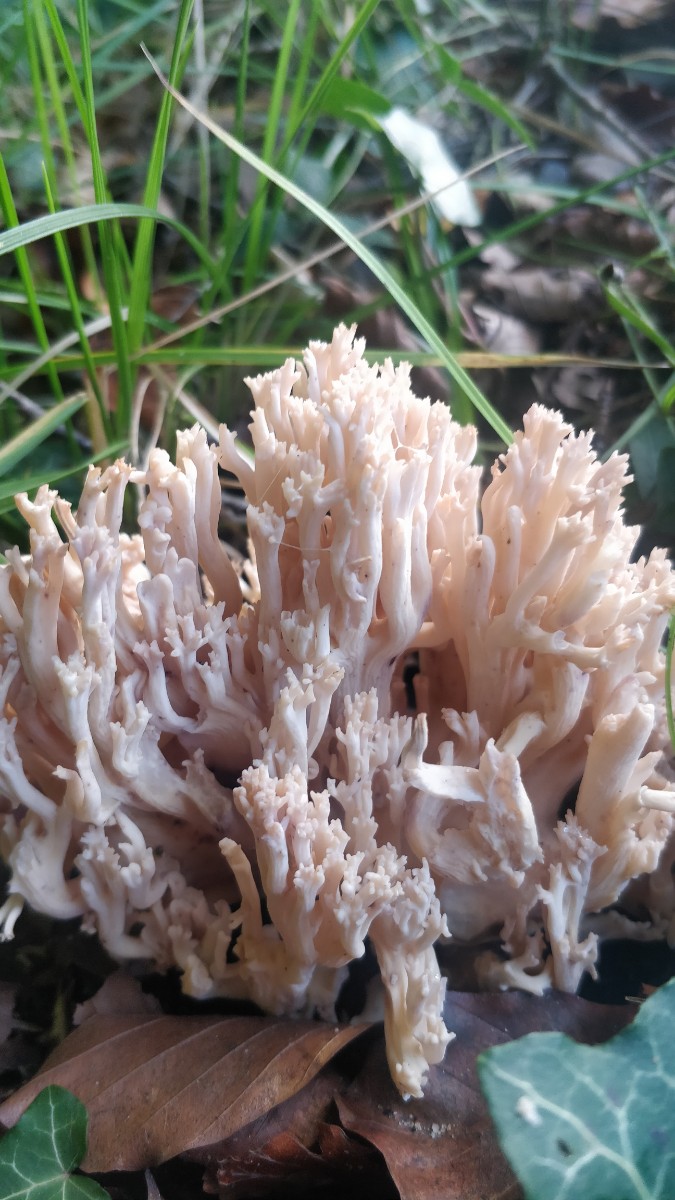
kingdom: Fungi
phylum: Basidiomycota
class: Agaricomycetes
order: Gomphales
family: Gomphaceae
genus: Ramaria
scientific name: Ramaria
